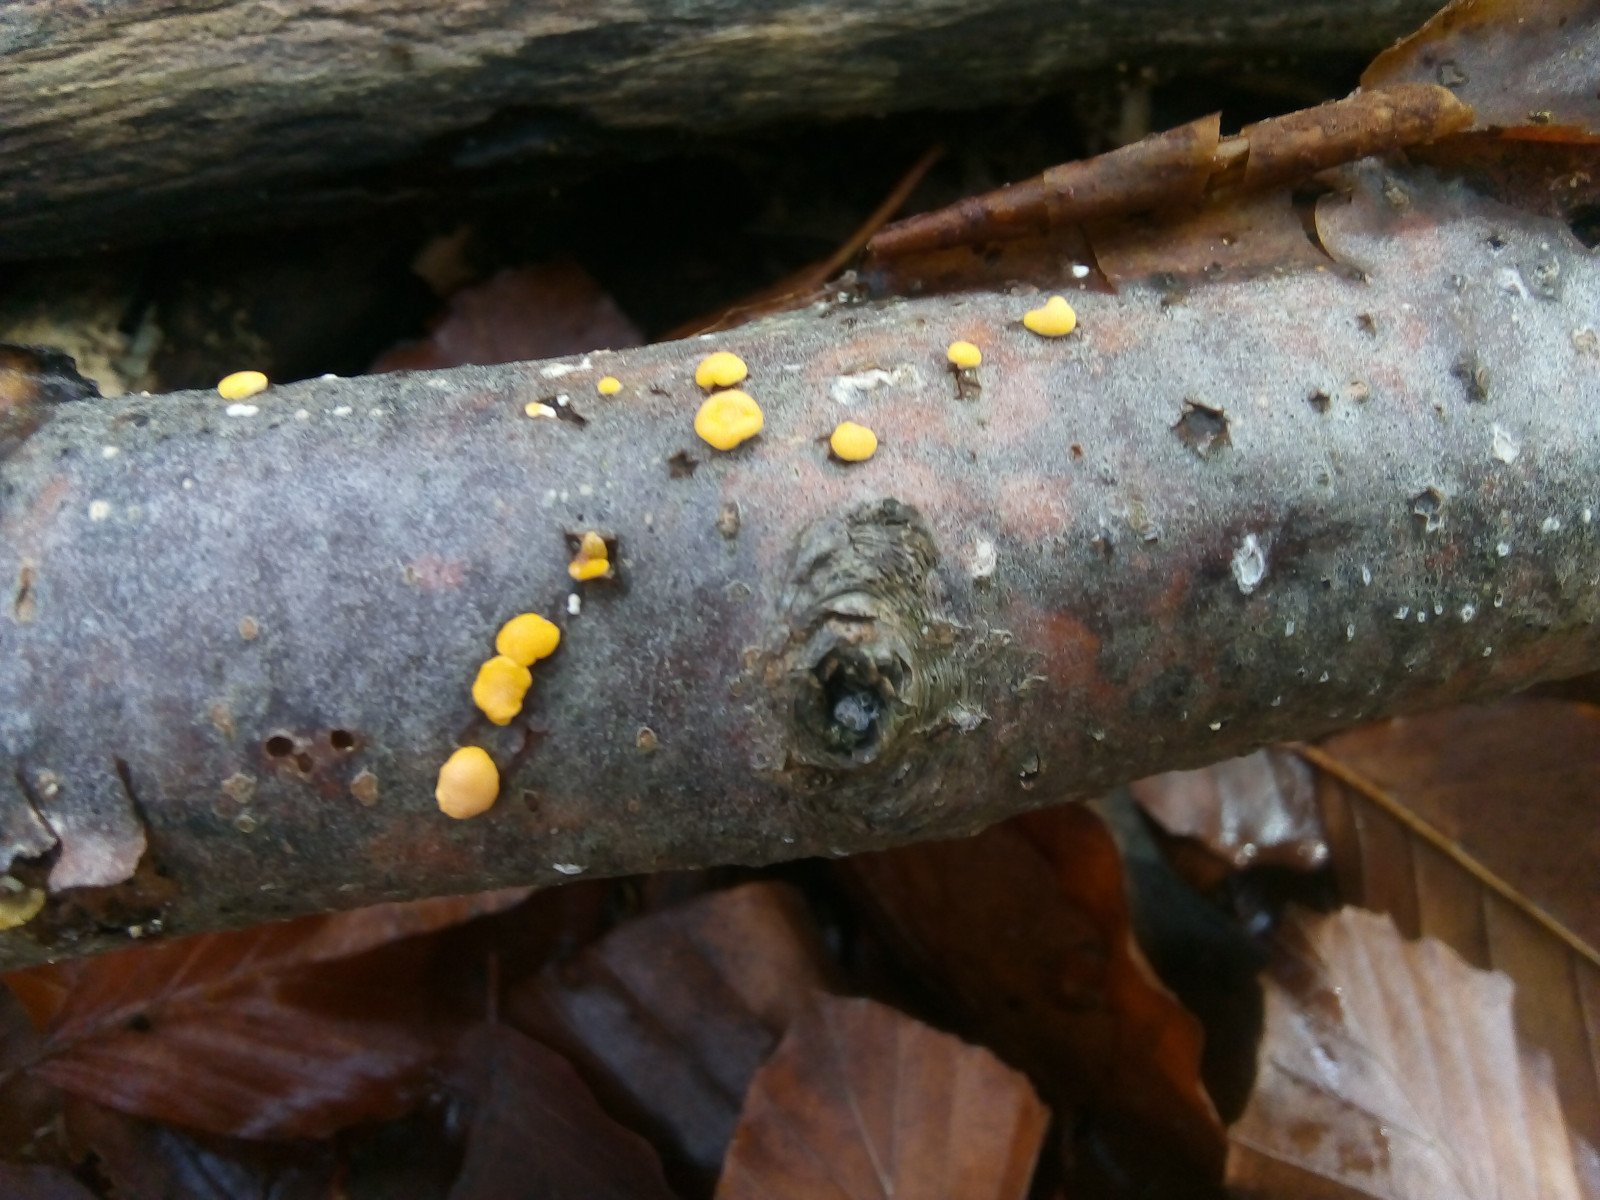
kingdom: Fungi
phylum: Ascomycota
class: Leotiomycetes
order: Helotiales
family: Pezizellaceae
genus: Calycina
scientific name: Calycina citrina
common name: almindelig gulskive
